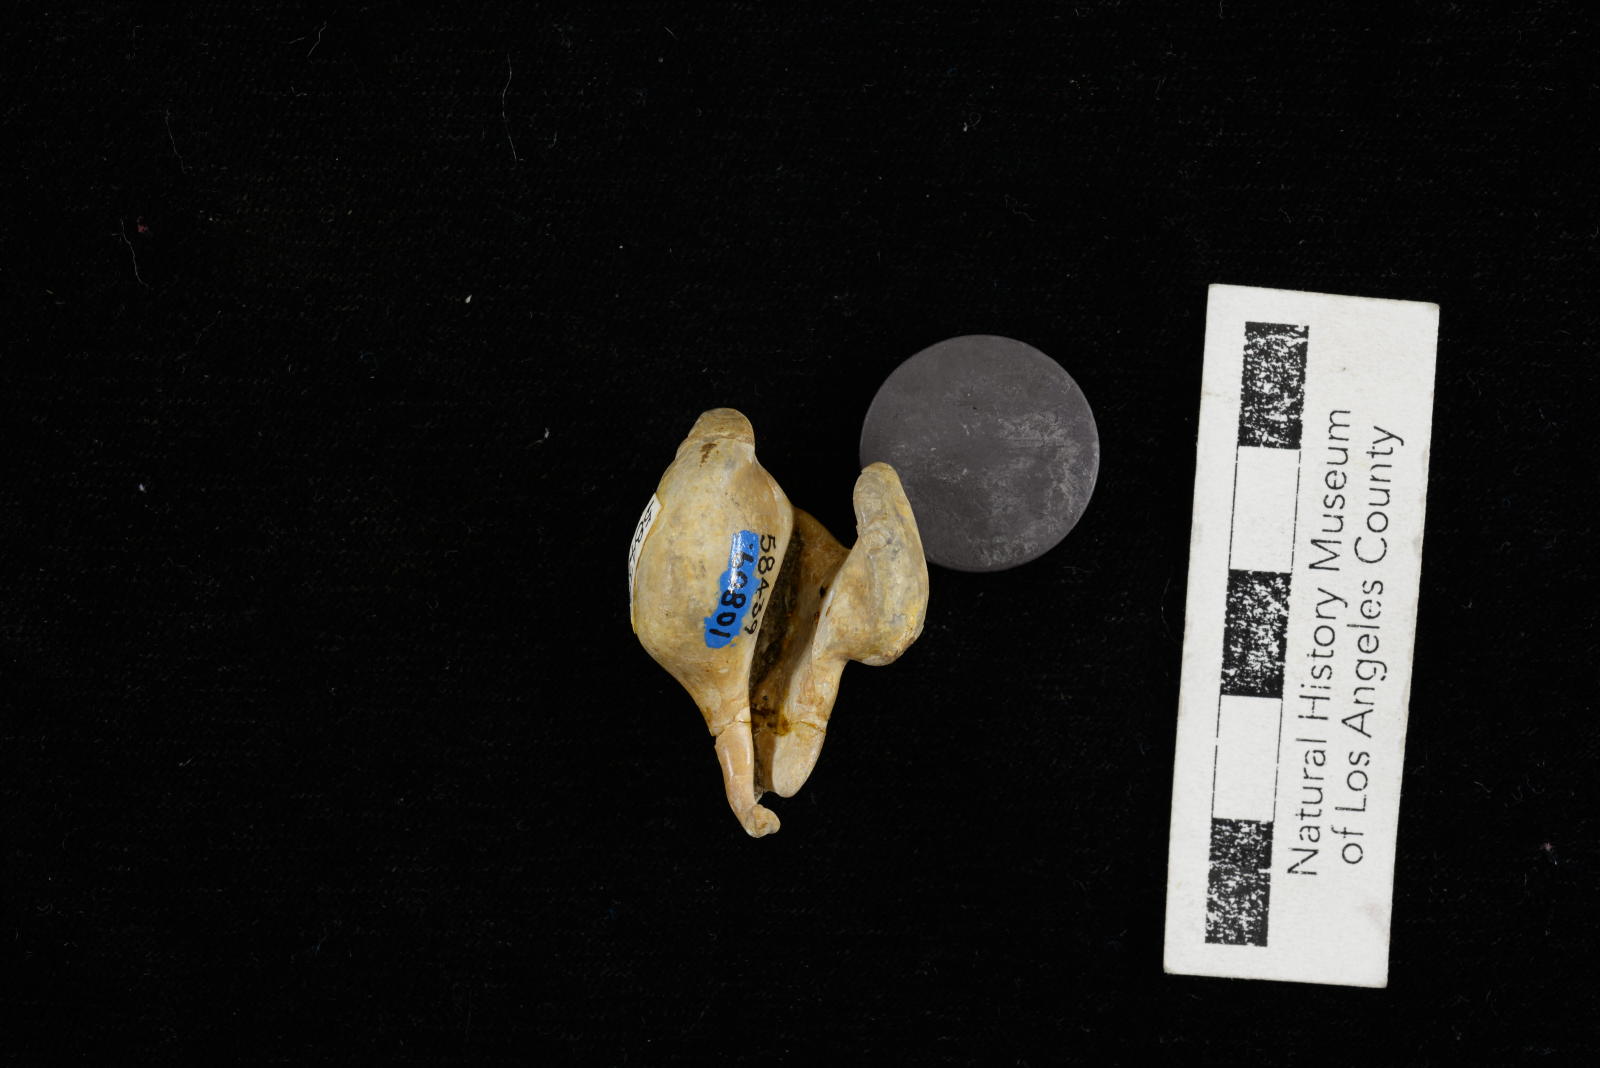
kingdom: Animalia
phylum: Mollusca
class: Gastropoda
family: Turritellidae
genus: Turritella
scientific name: Turritella chicoensis
